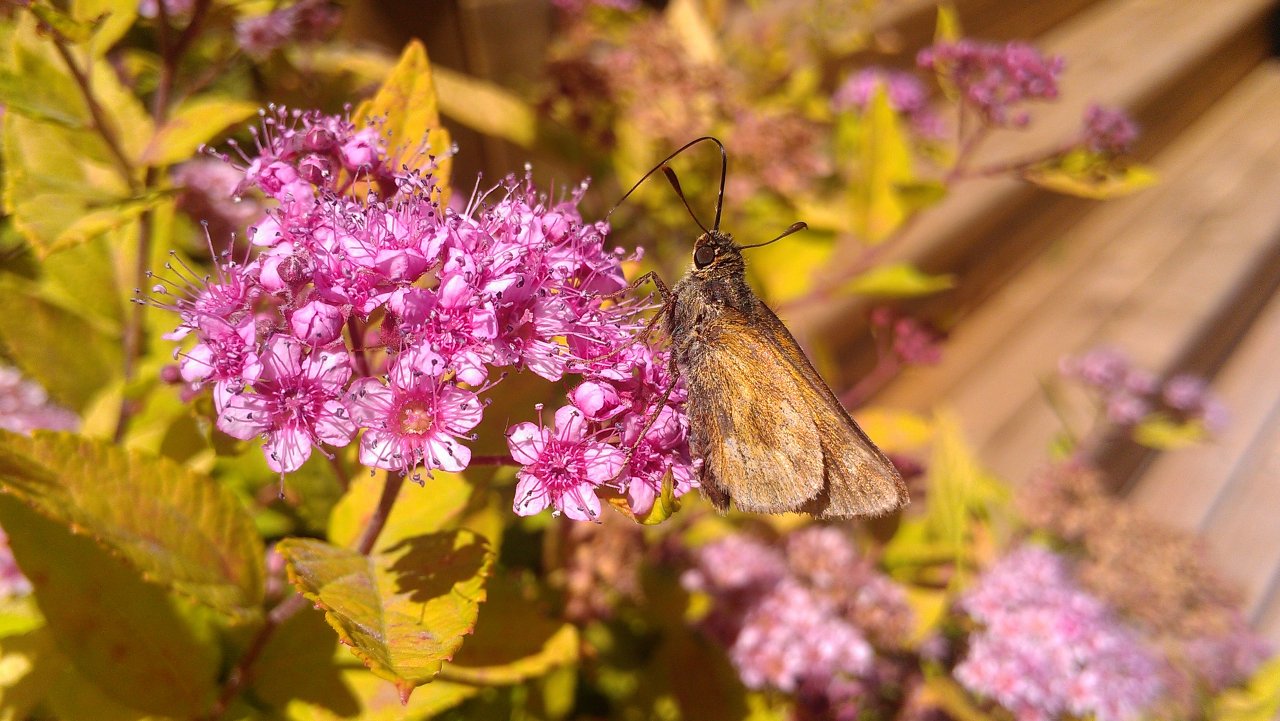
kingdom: Animalia
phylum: Arthropoda
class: Insecta
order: Lepidoptera
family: Hesperiidae
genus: Polites
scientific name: Polites
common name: Long Dash Skipper
